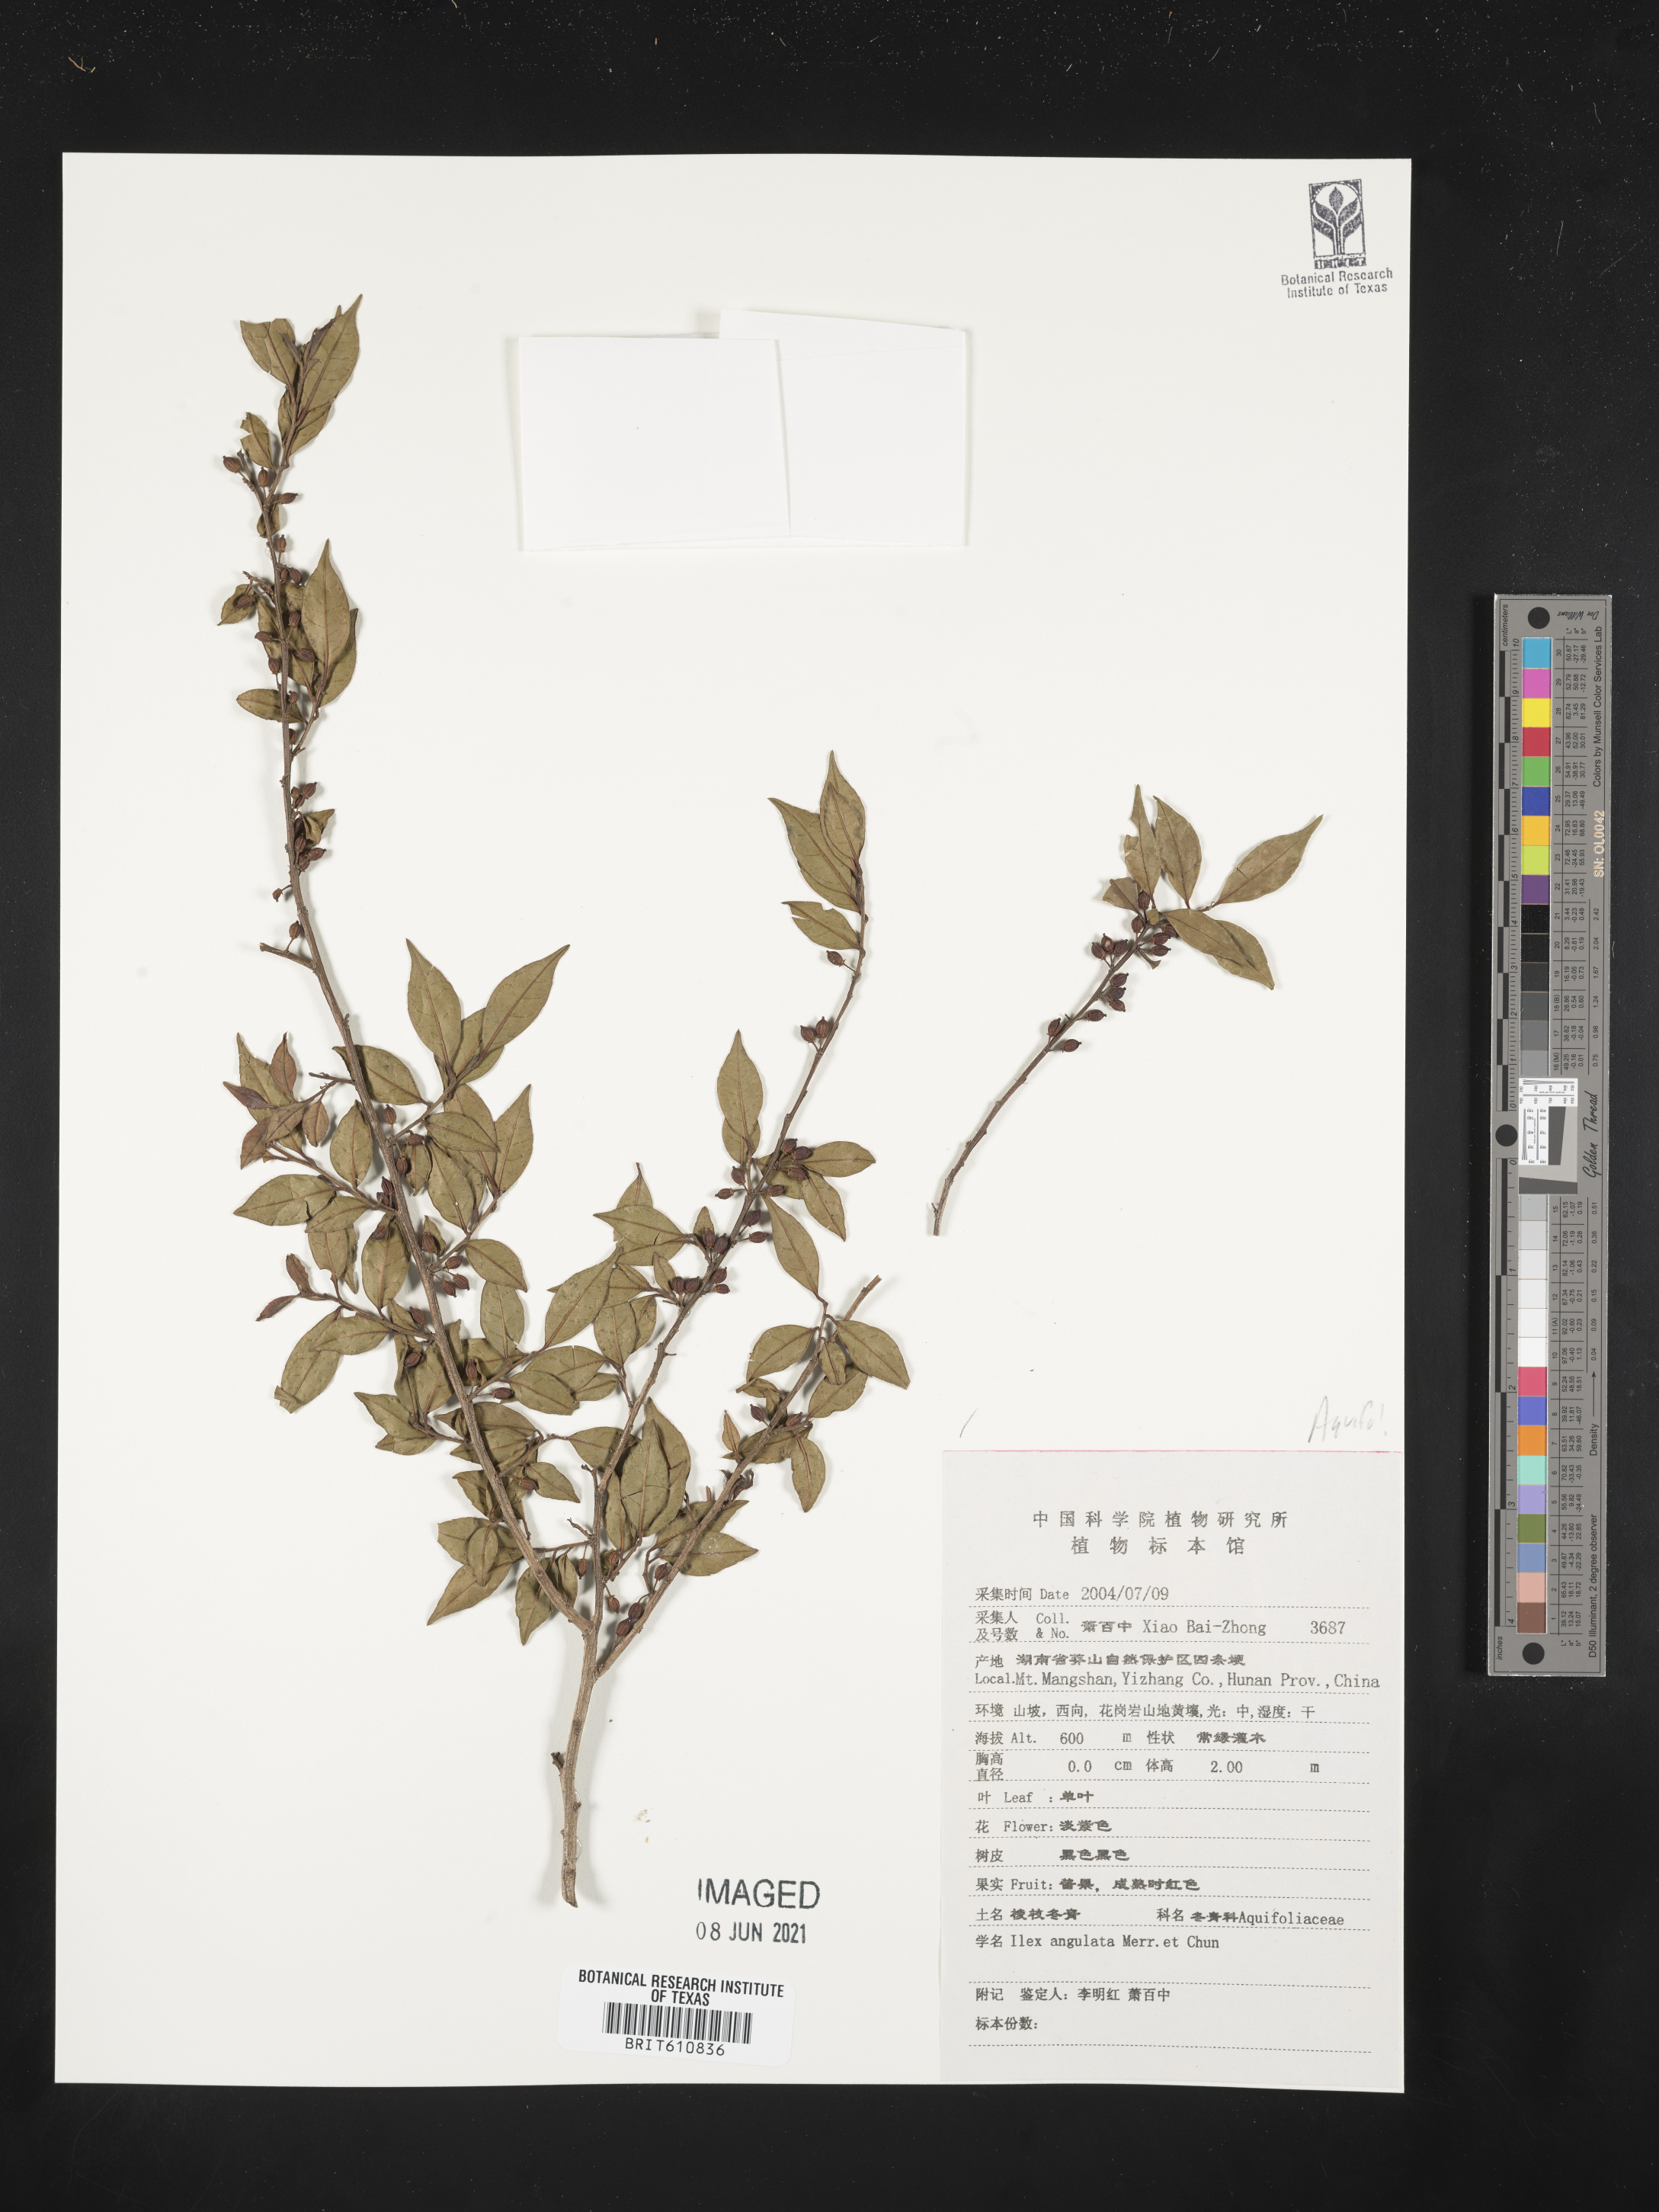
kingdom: Plantae
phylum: Tracheophyta
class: Magnoliopsida
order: Aquifoliales
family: Aquifoliaceae
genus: Ilex
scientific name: Ilex angulata
